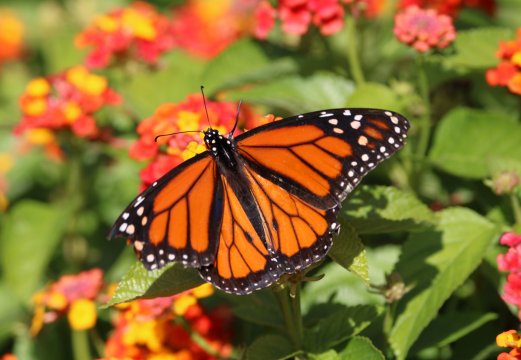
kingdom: Animalia
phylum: Arthropoda
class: Insecta
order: Lepidoptera
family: Nymphalidae
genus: Danaus
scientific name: Danaus plexippus
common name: Monarch
